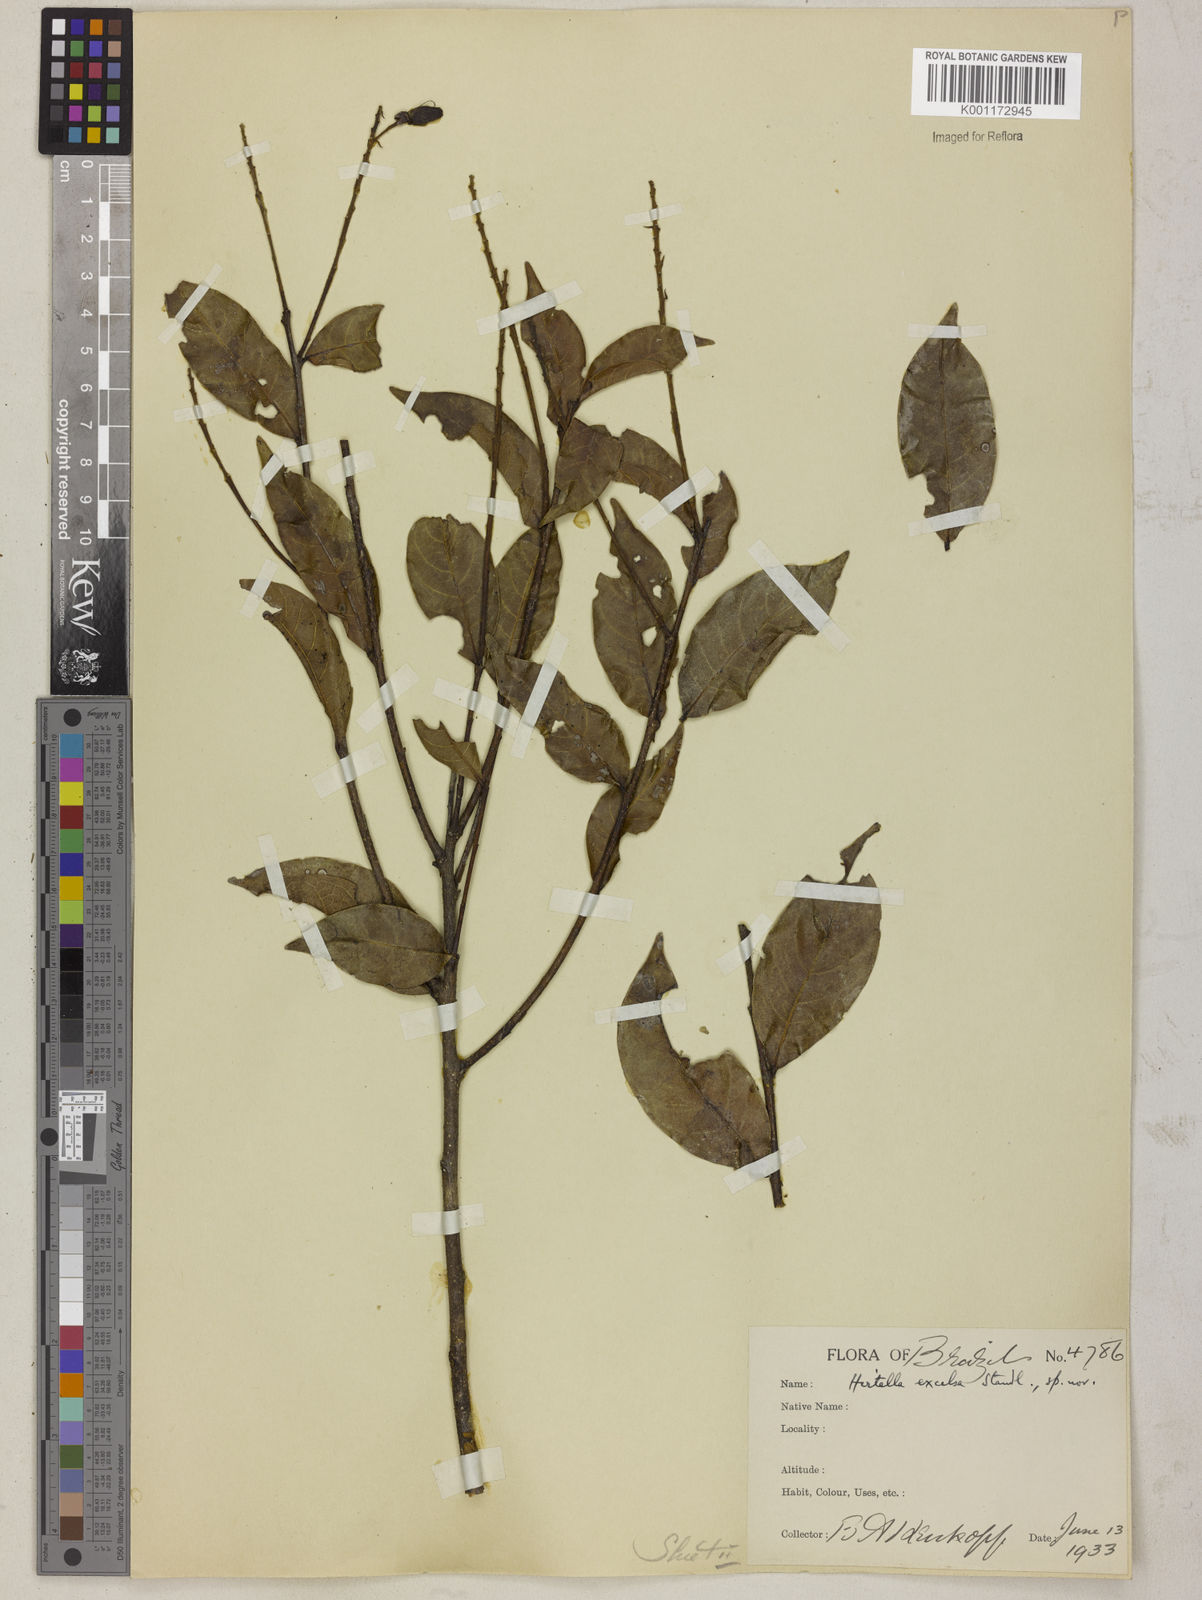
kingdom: Plantae
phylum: Tracheophyta
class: Magnoliopsida
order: Malpighiales
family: Chrysobalanaceae
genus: Hirtella
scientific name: Hirtella excelsa
